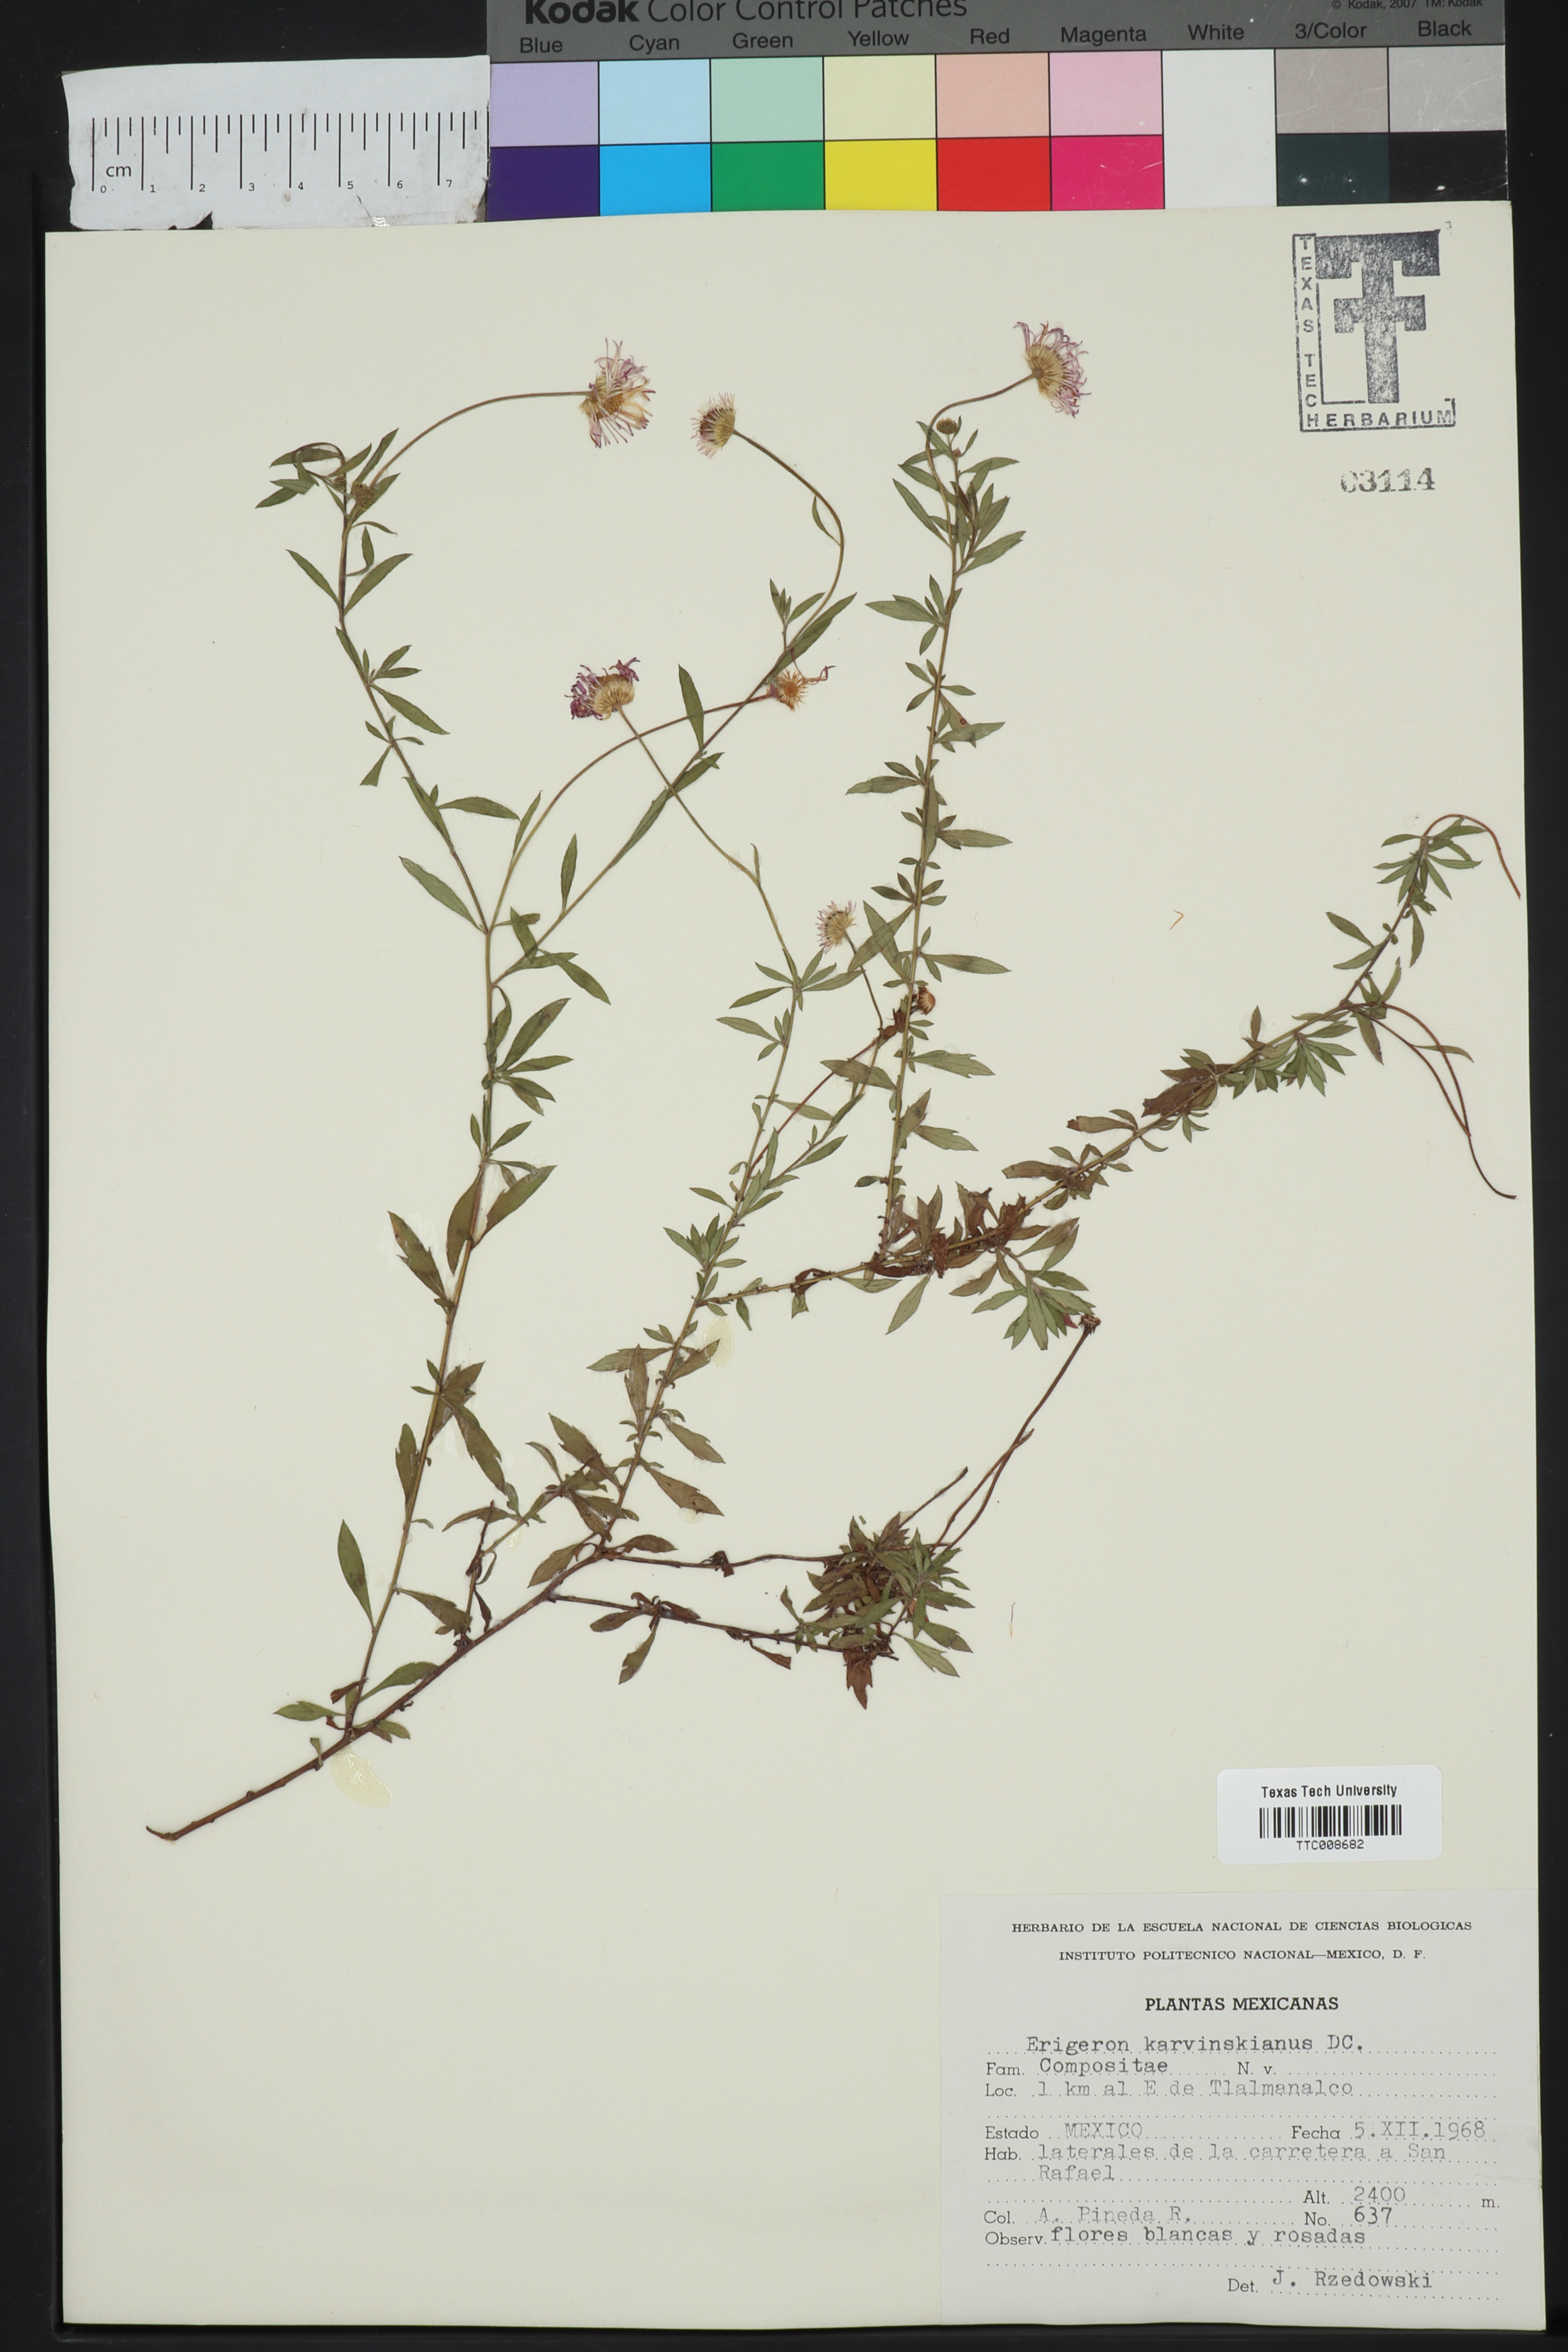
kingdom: Plantae
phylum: Tracheophyta
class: Magnoliopsida
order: Asterales
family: Asteraceae
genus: Erigeron
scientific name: Erigeron karvinskianus
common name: Mexican fleabane
